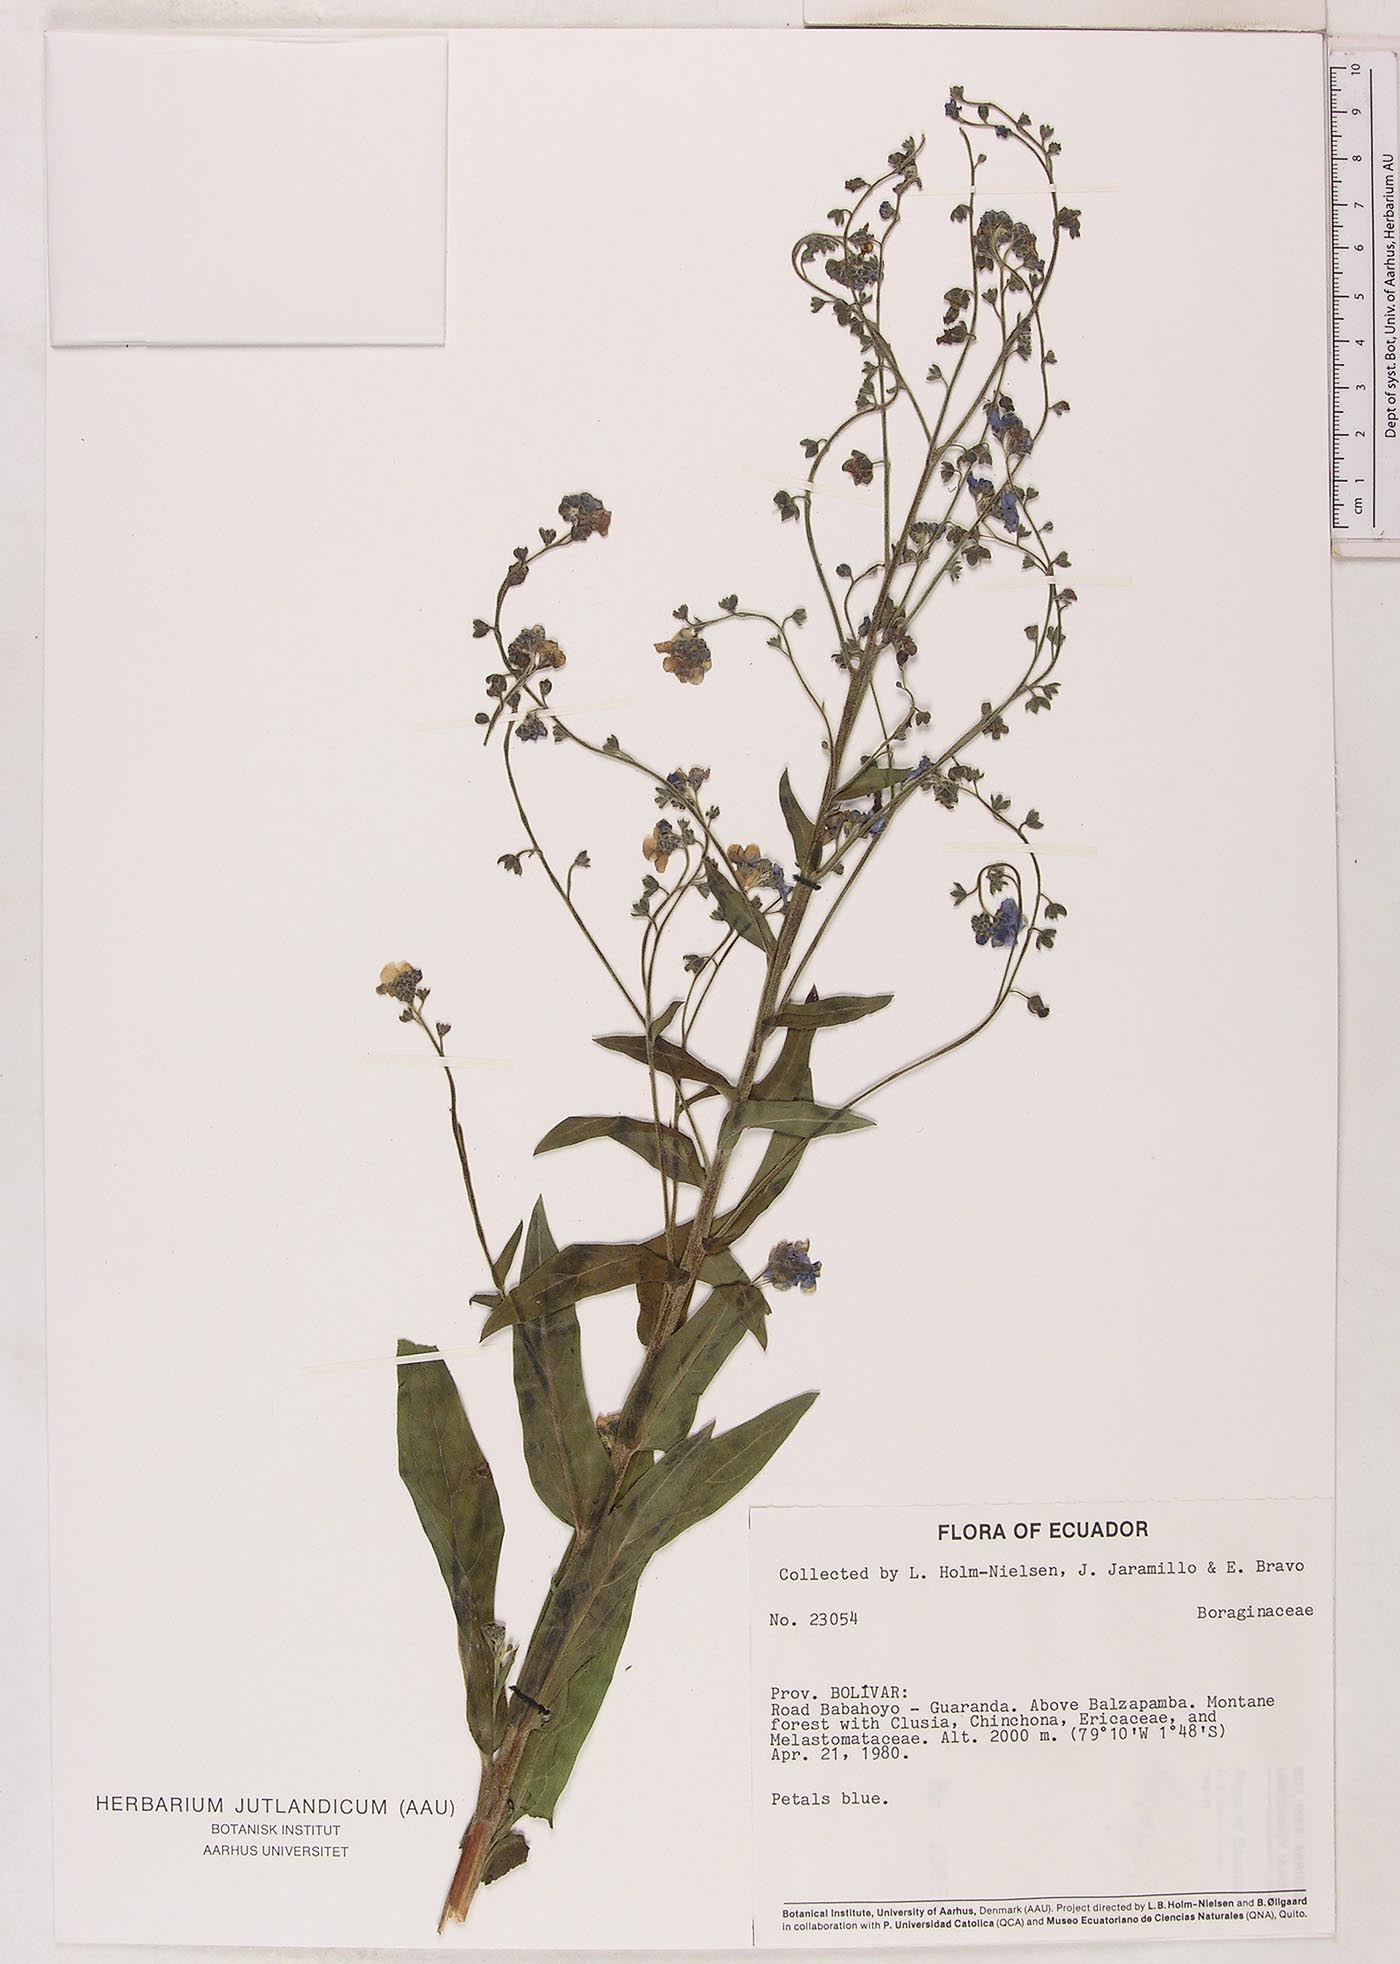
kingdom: Plantae
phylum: Tracheophyta
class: Magnoliopsida
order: Boraginales
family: Boraginaceae
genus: Cynoglossum
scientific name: Cynoglossum amabile
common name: Chinese hound's tongue
